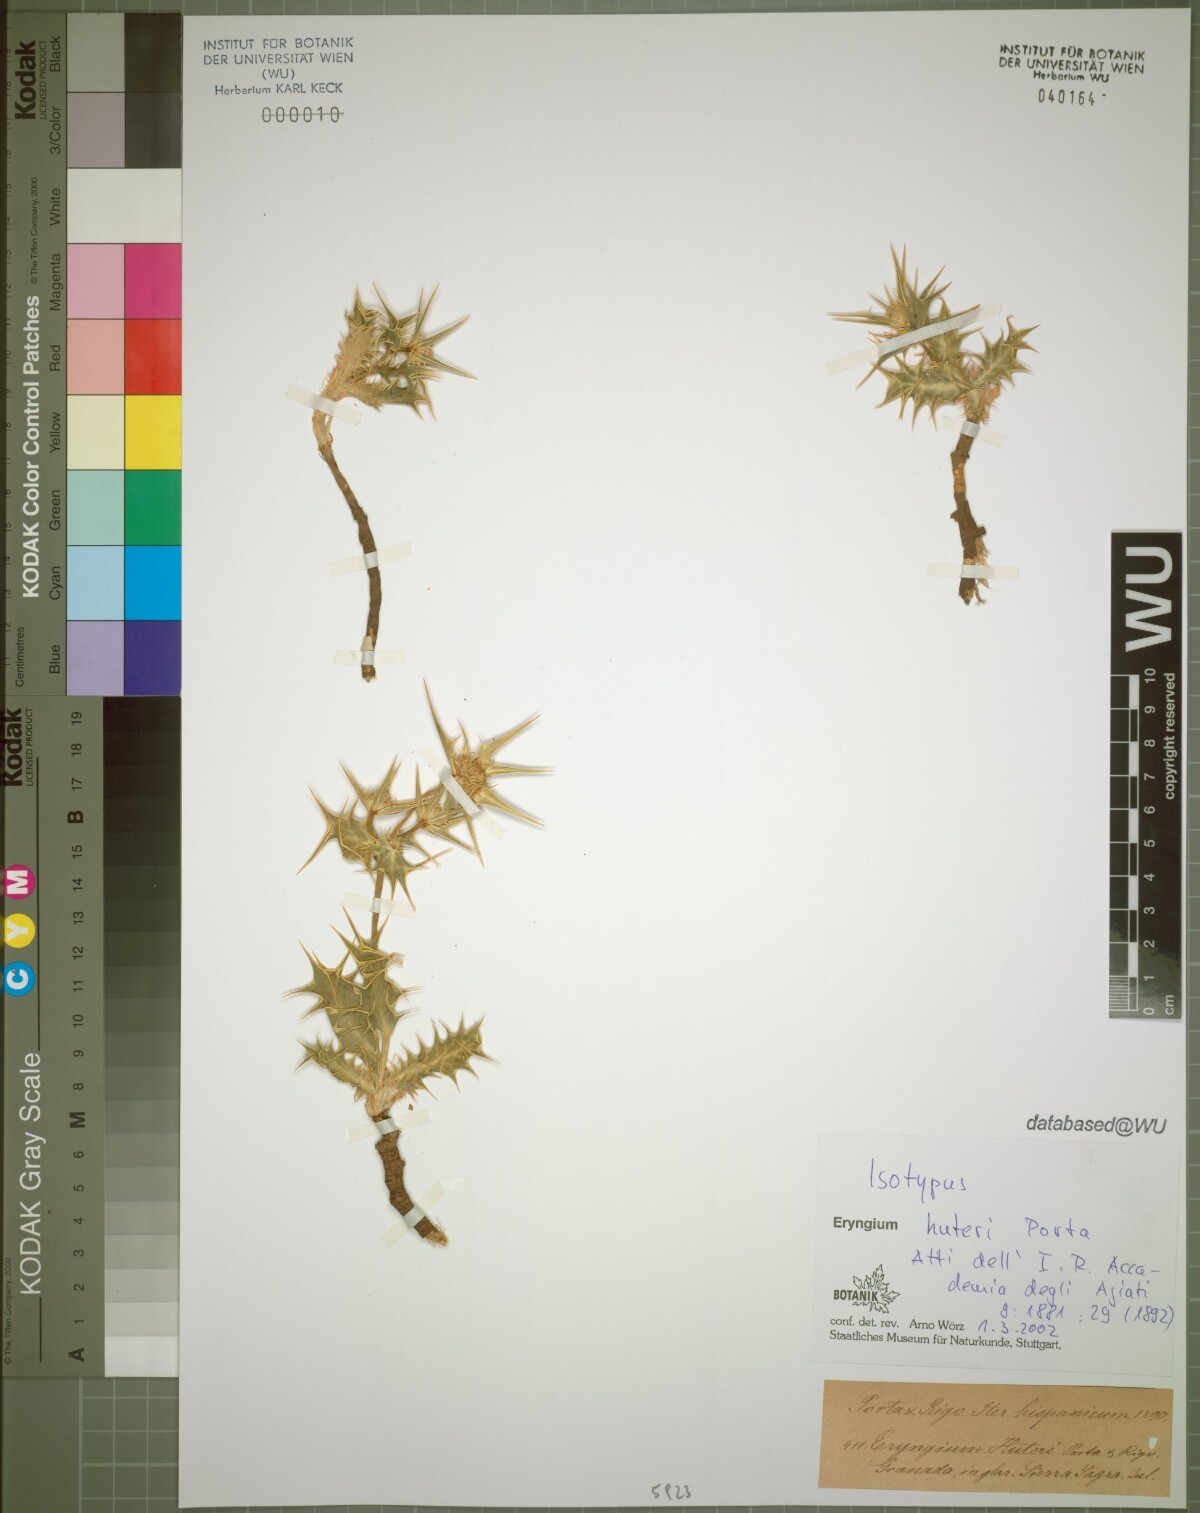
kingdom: Plantae
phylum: Tracheophyta
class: Magnoliopsida
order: Apiales
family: Apiaceae
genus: Eryngium
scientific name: Eryngium huteri
